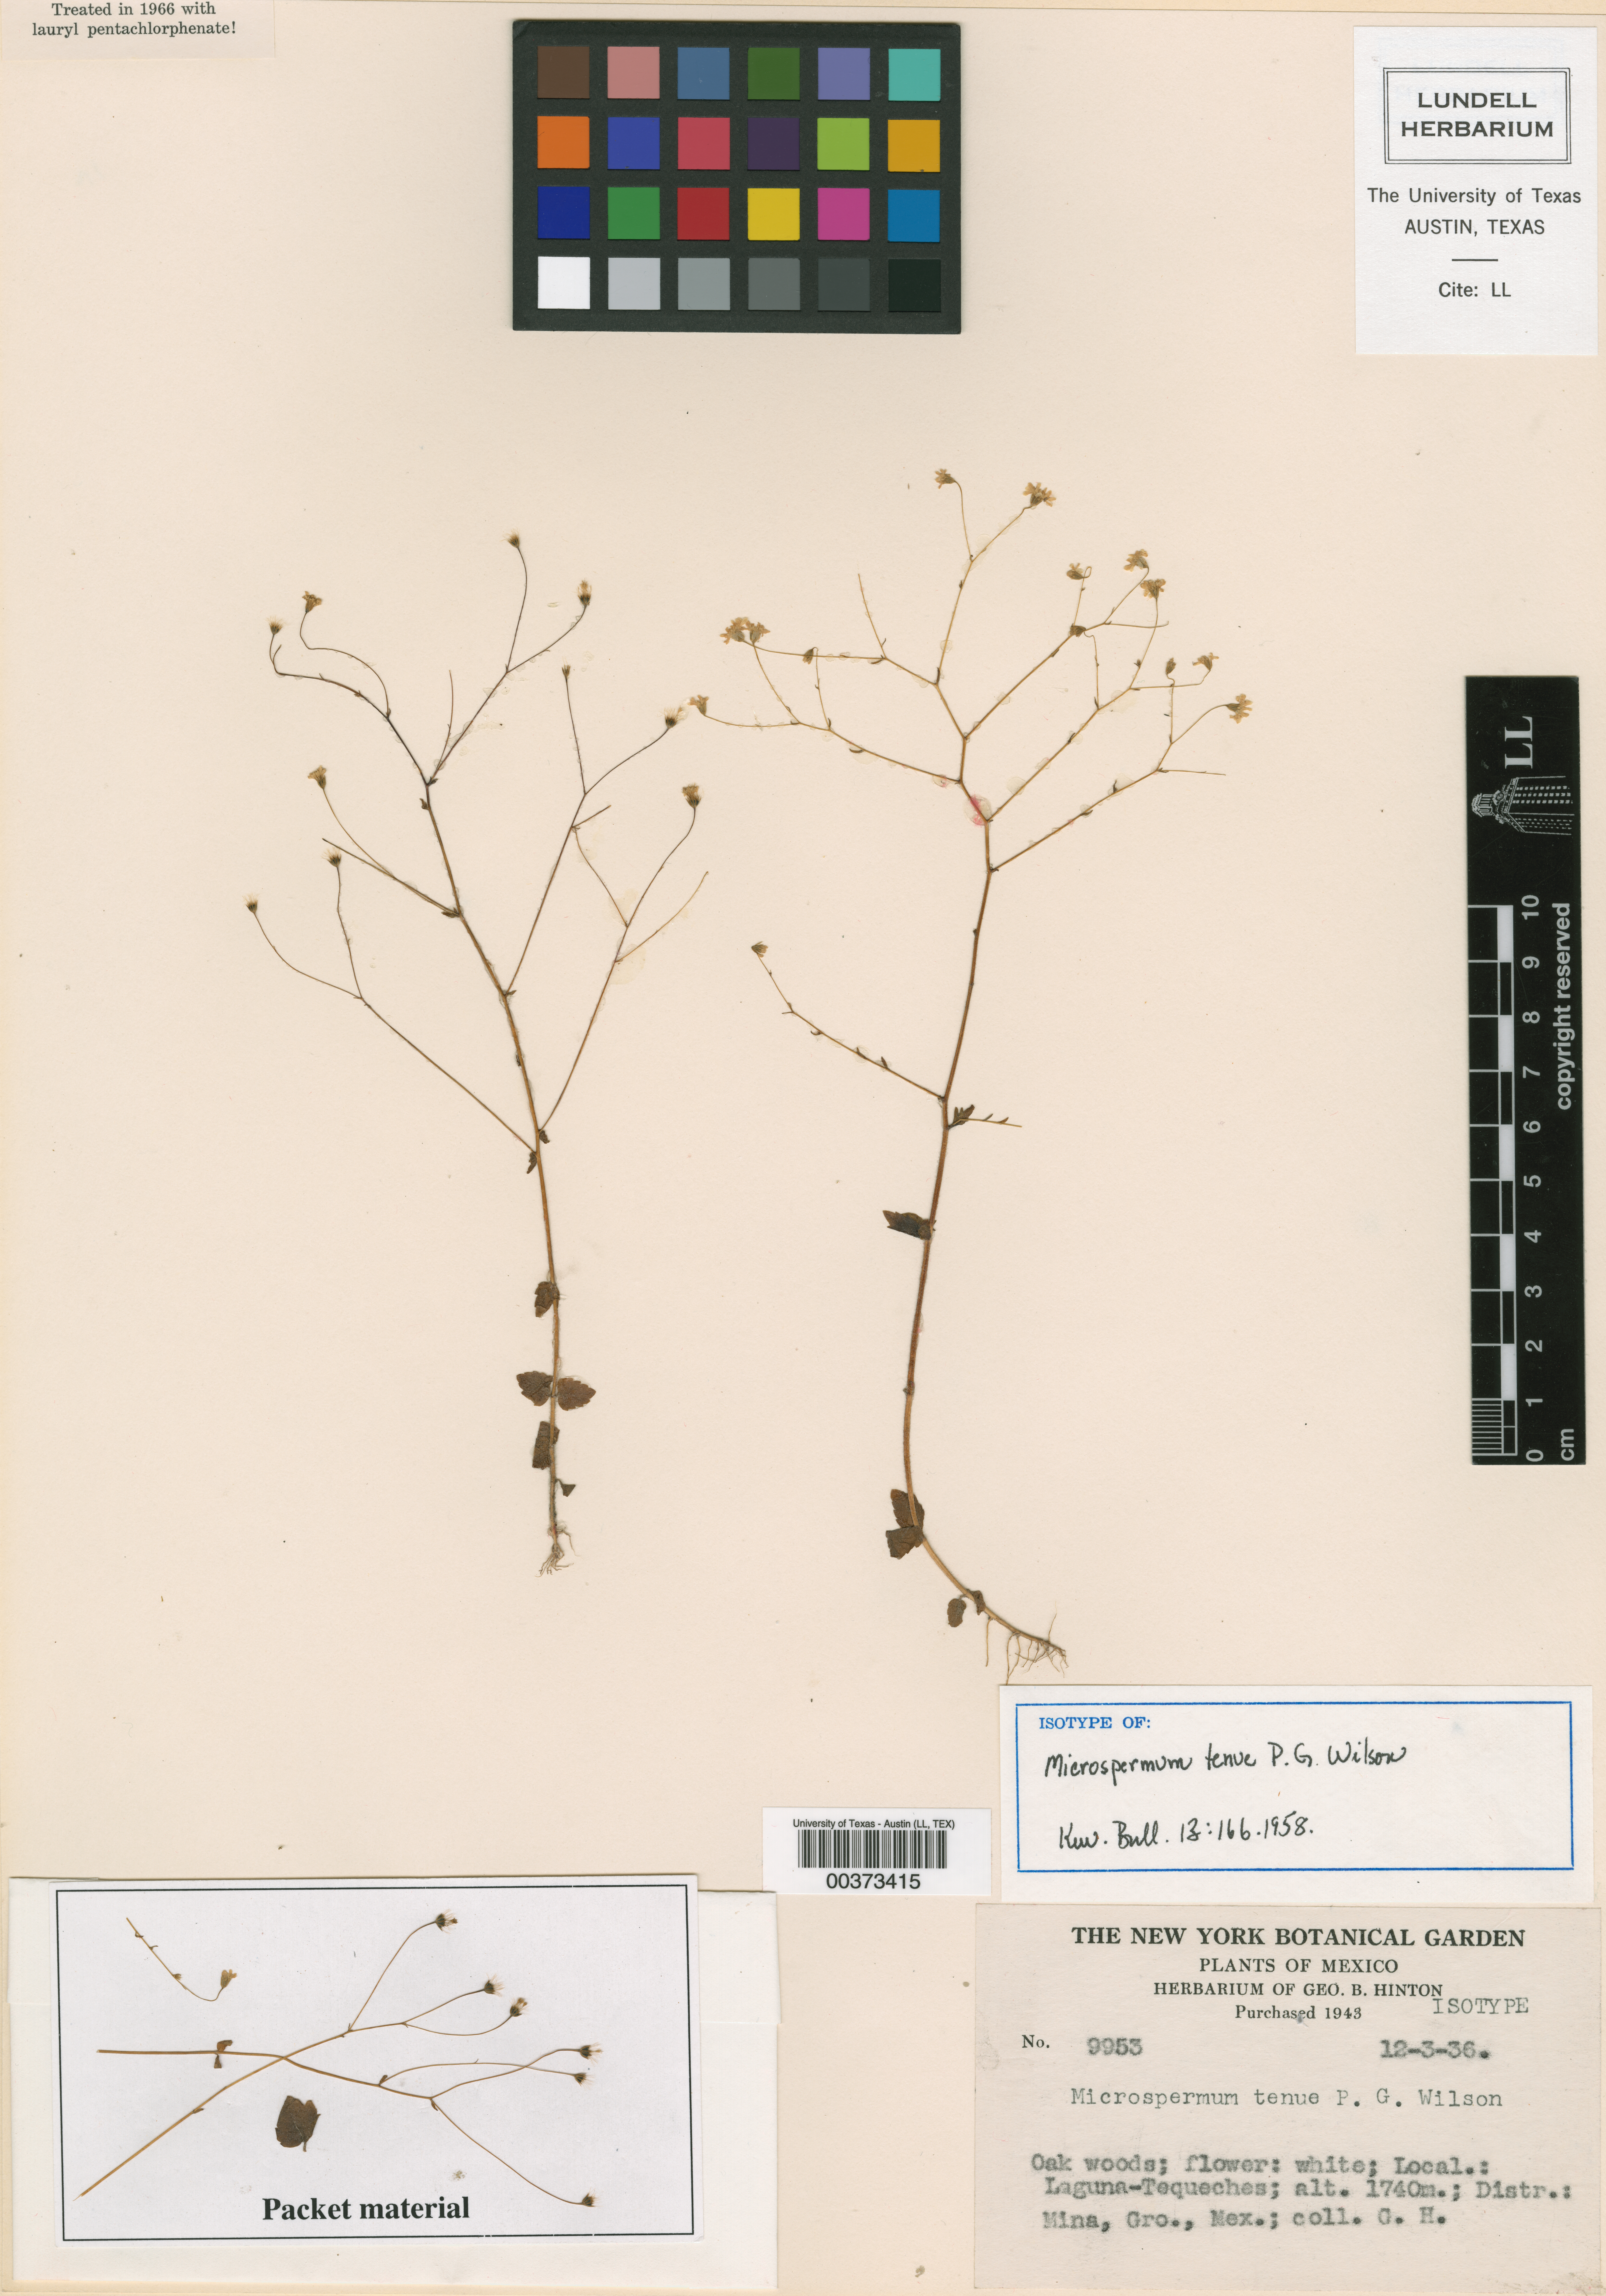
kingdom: Plantae
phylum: Tracheophyta
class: Magnoliopsida
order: Asterales
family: Asteraceae
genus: Microspermum
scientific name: Microspermum tenue
